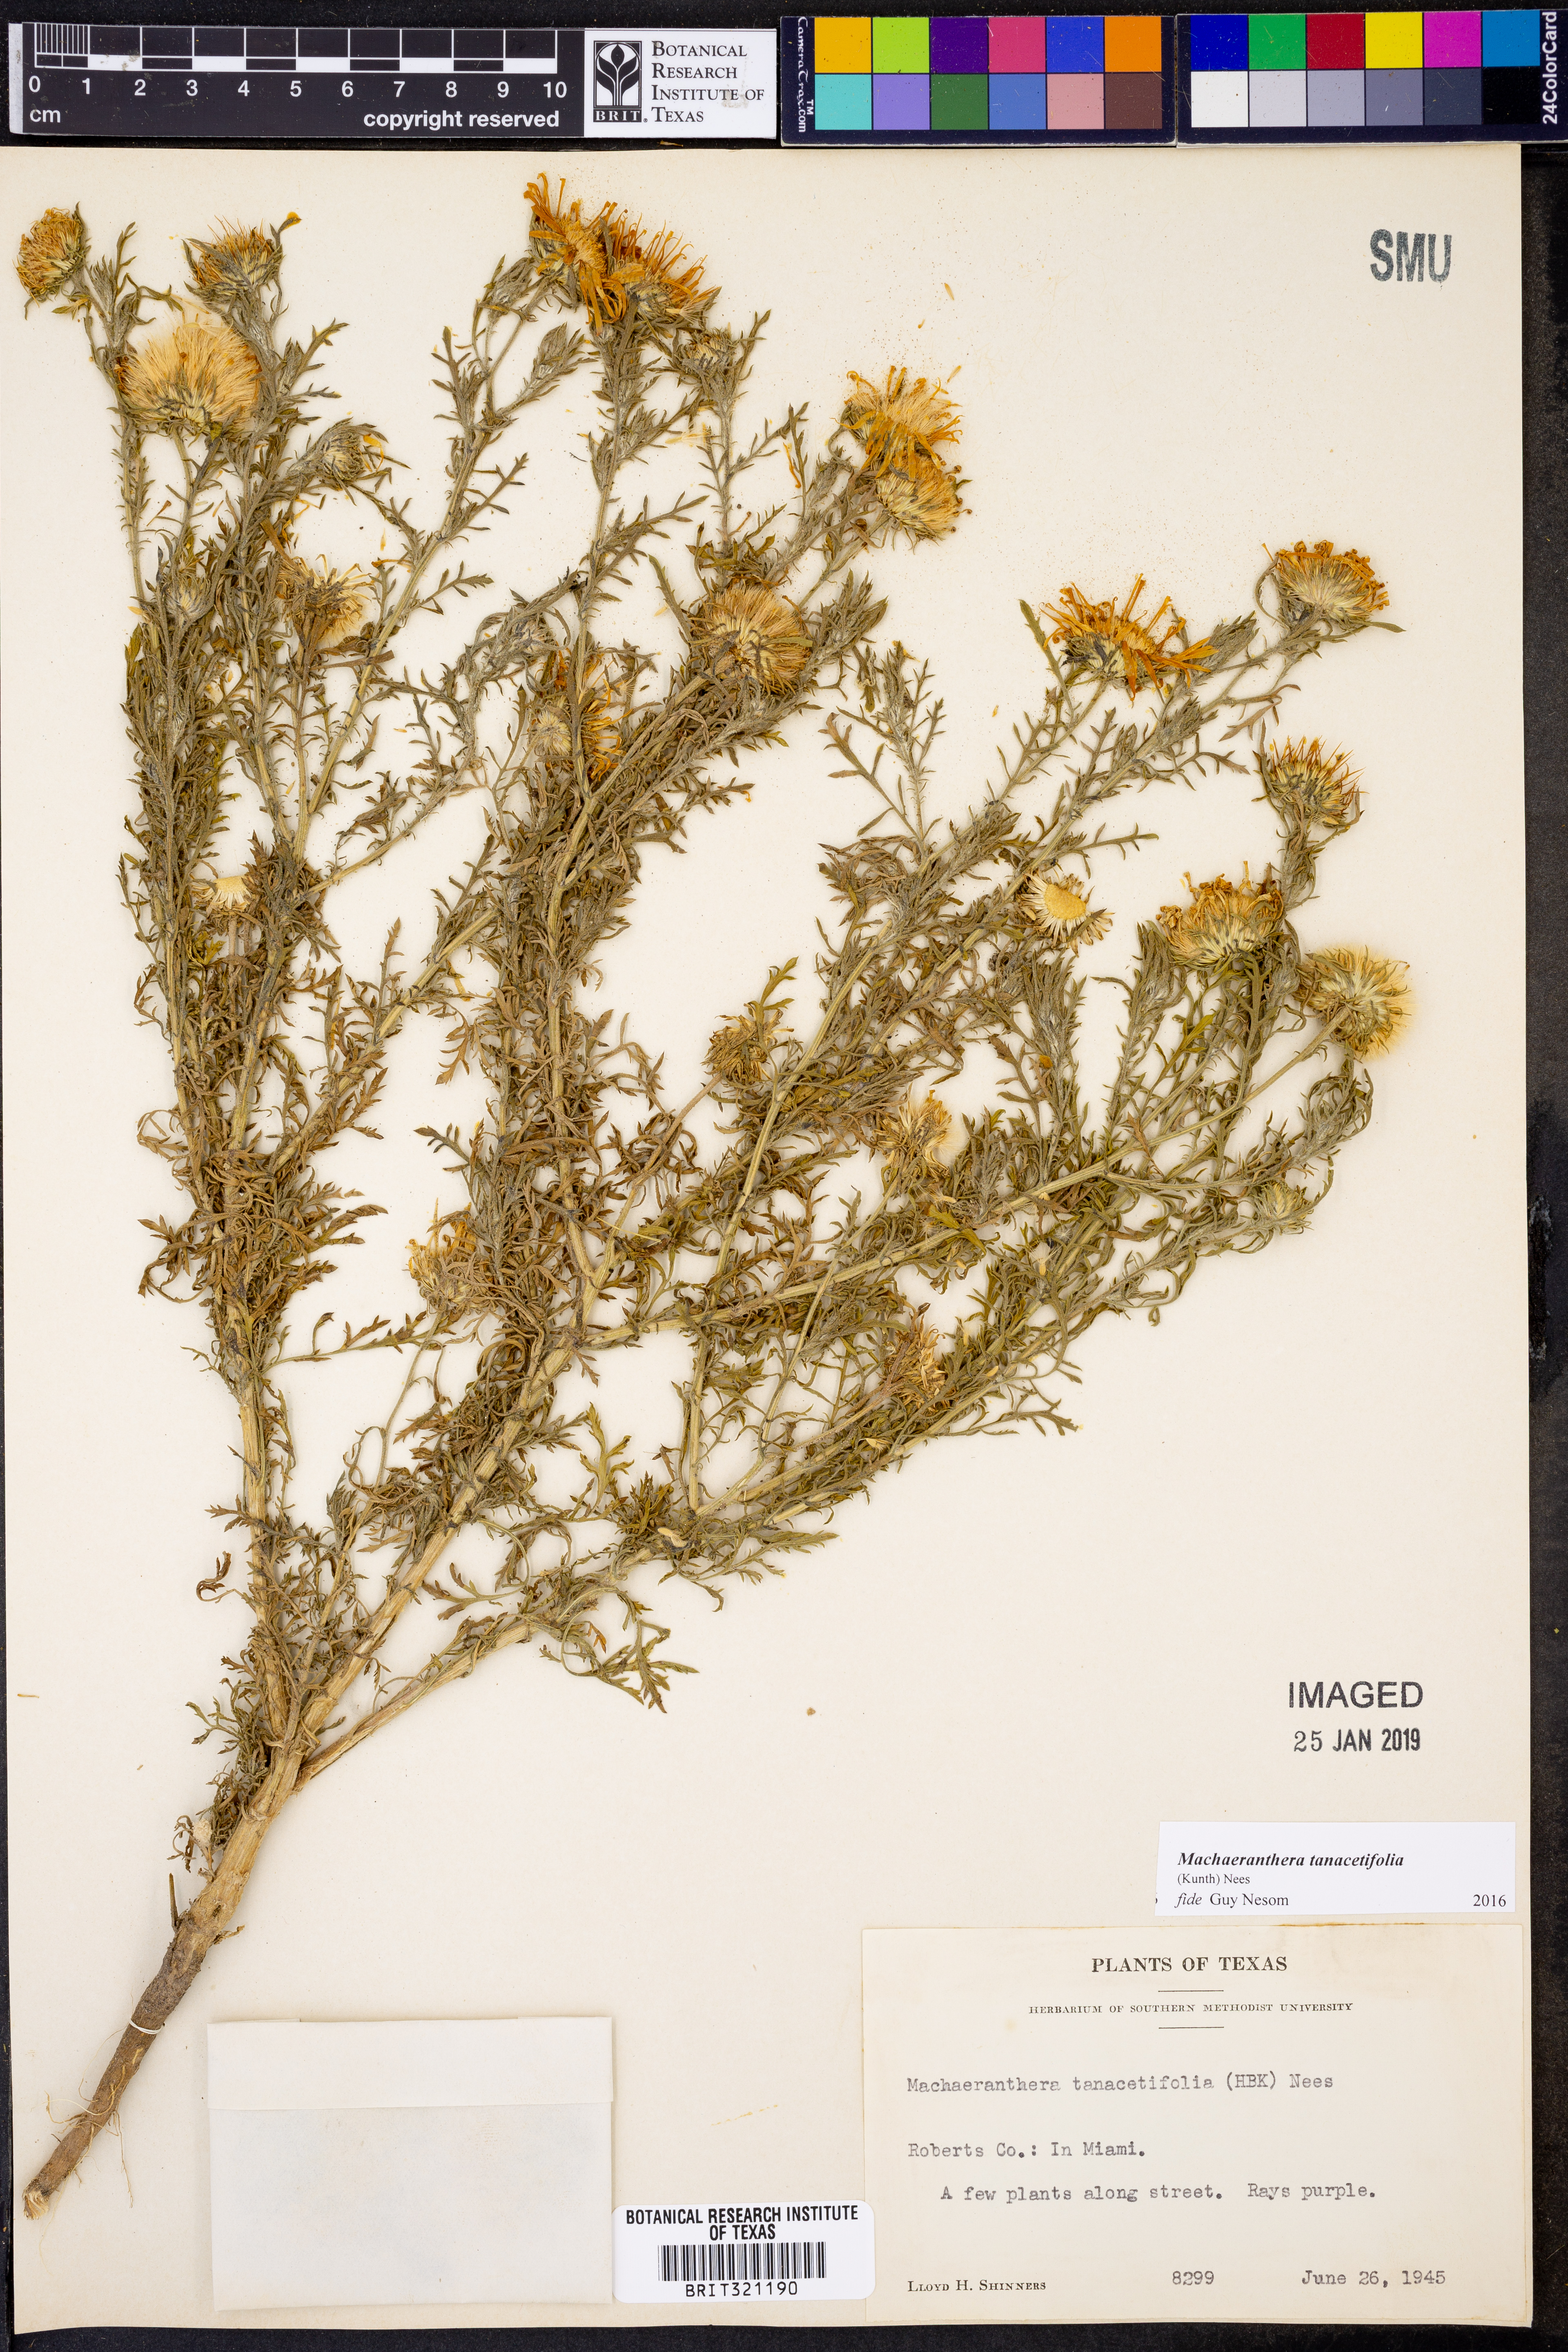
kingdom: Plantae
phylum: Tracheophyta
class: Magnoliopsida
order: Asterales
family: Asteraceae
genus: Machaeranthera
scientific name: Machaeranthera tanacetifolia
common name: Tansy-aster
